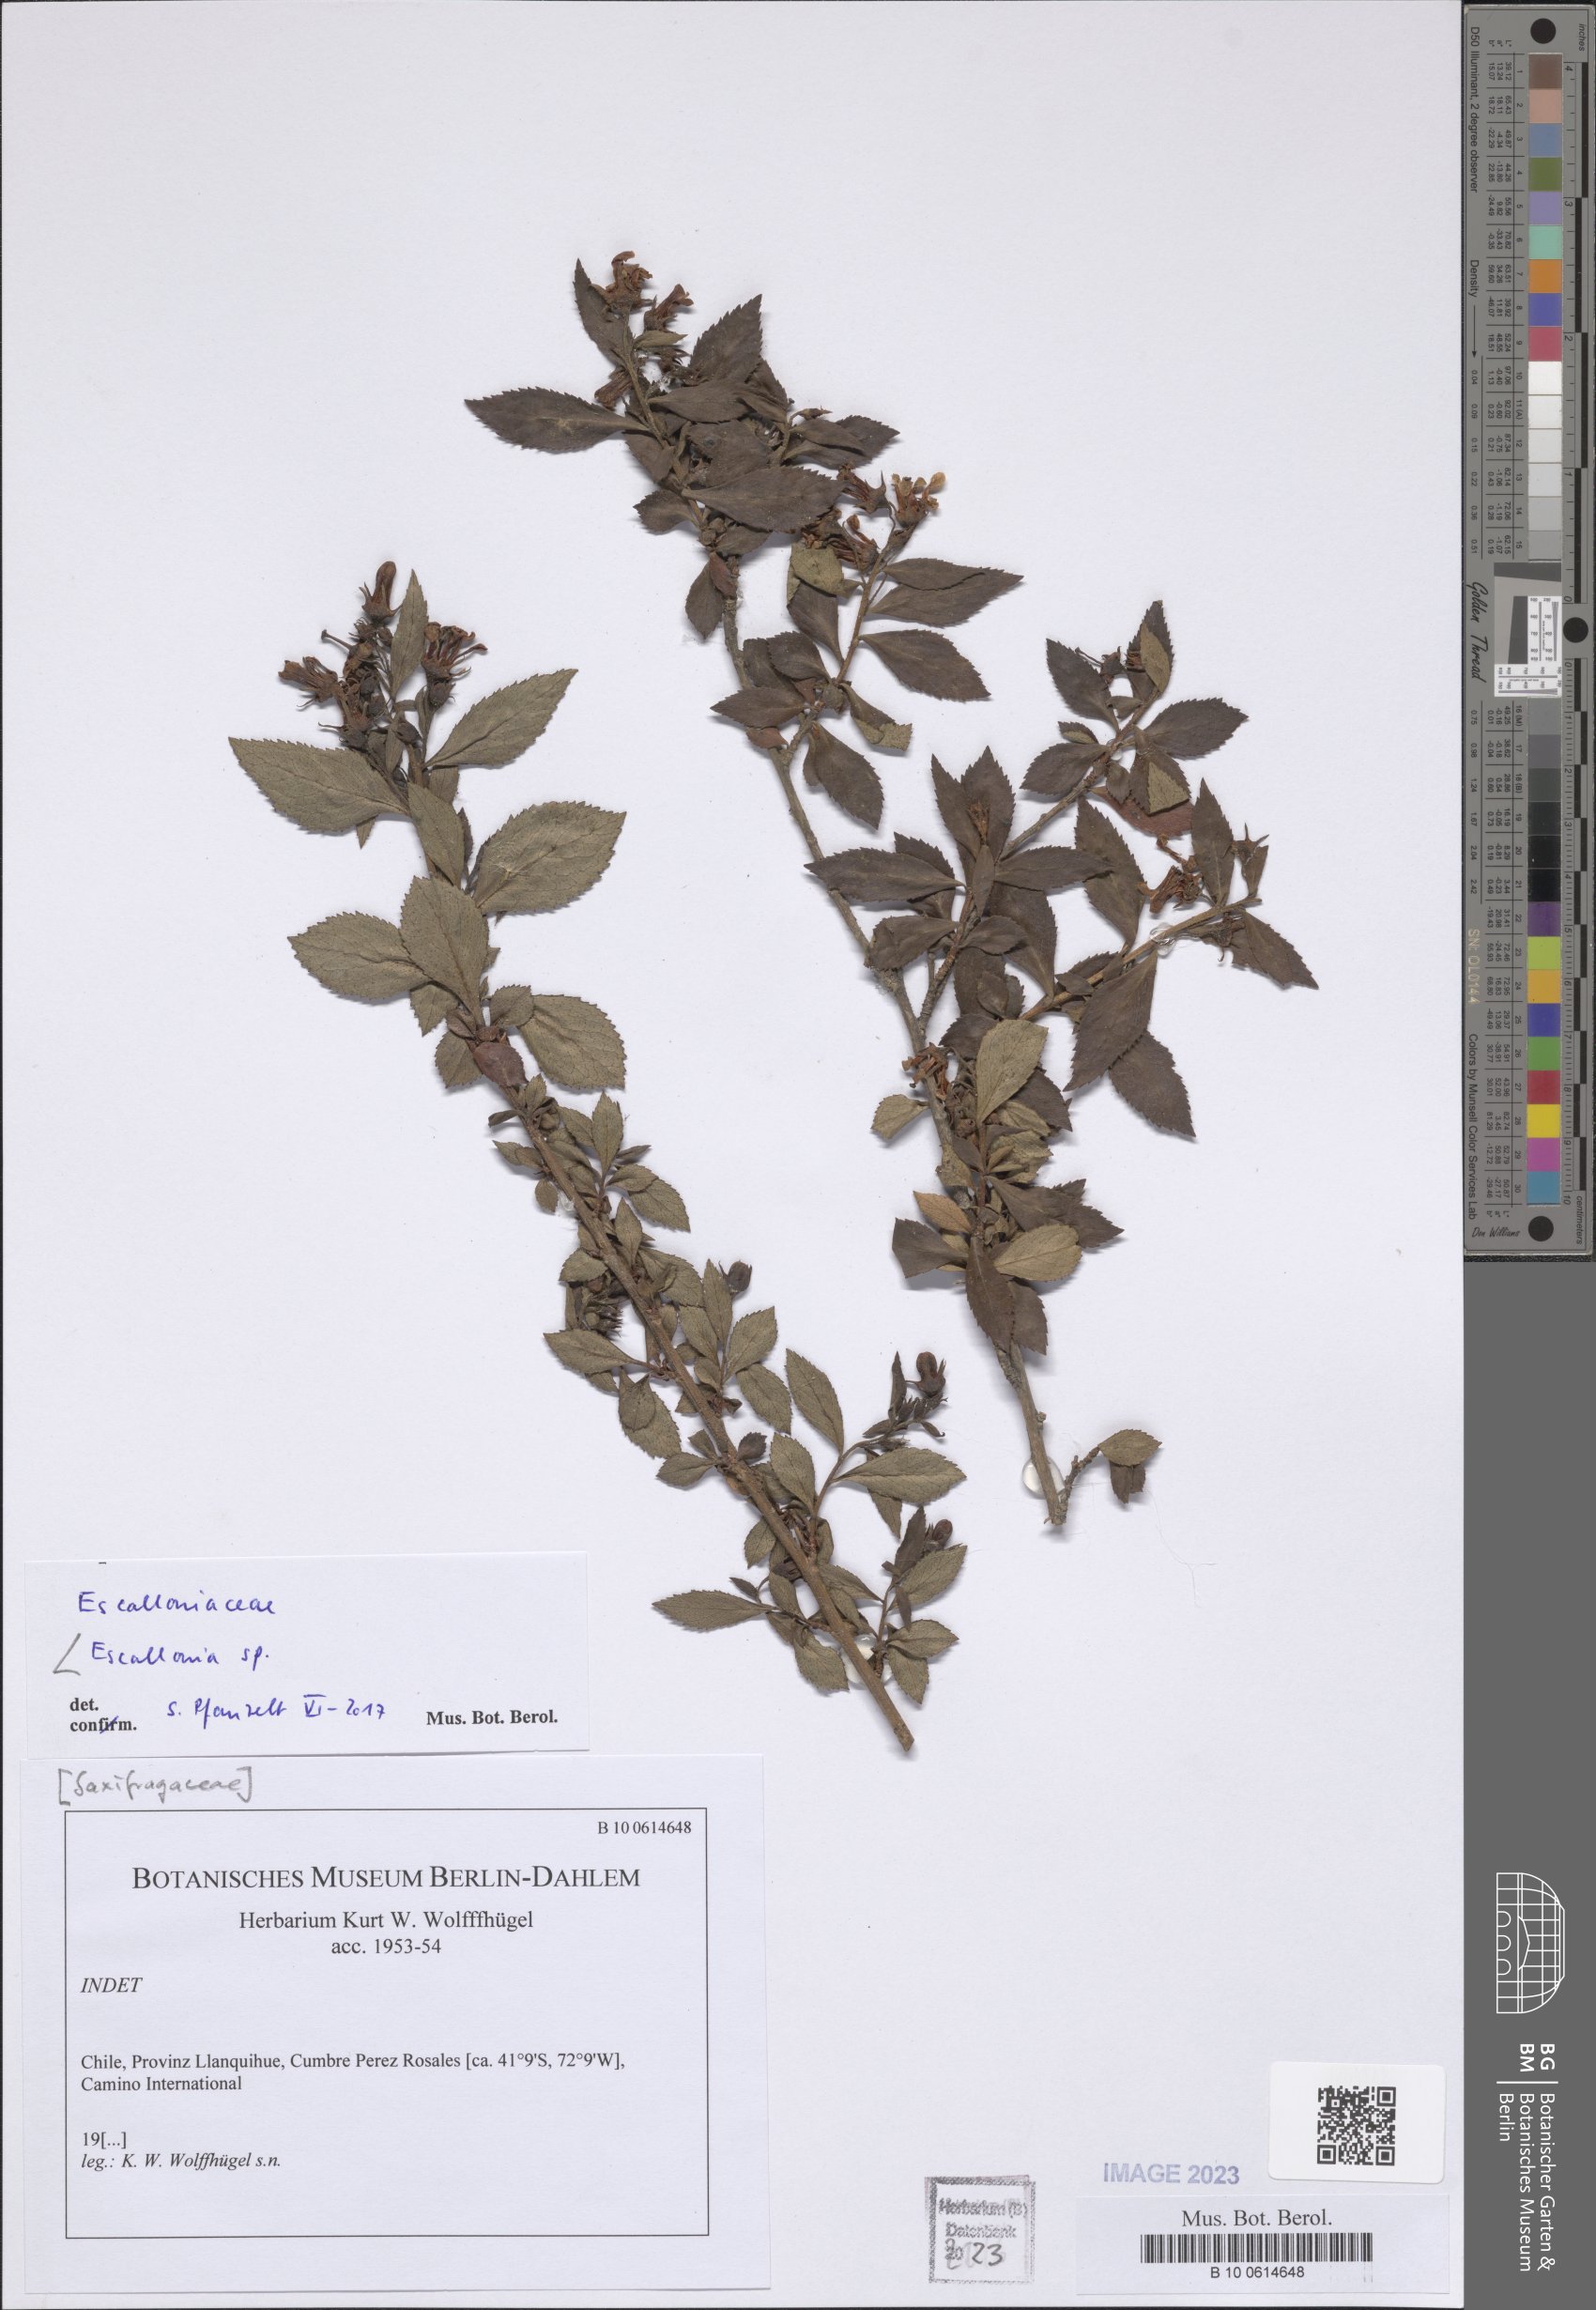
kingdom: Plantae
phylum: Tracheophyta
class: Magnoliopsida
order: Escalloniales
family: Escalloniaceae
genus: Escallonia
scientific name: Escallonia
